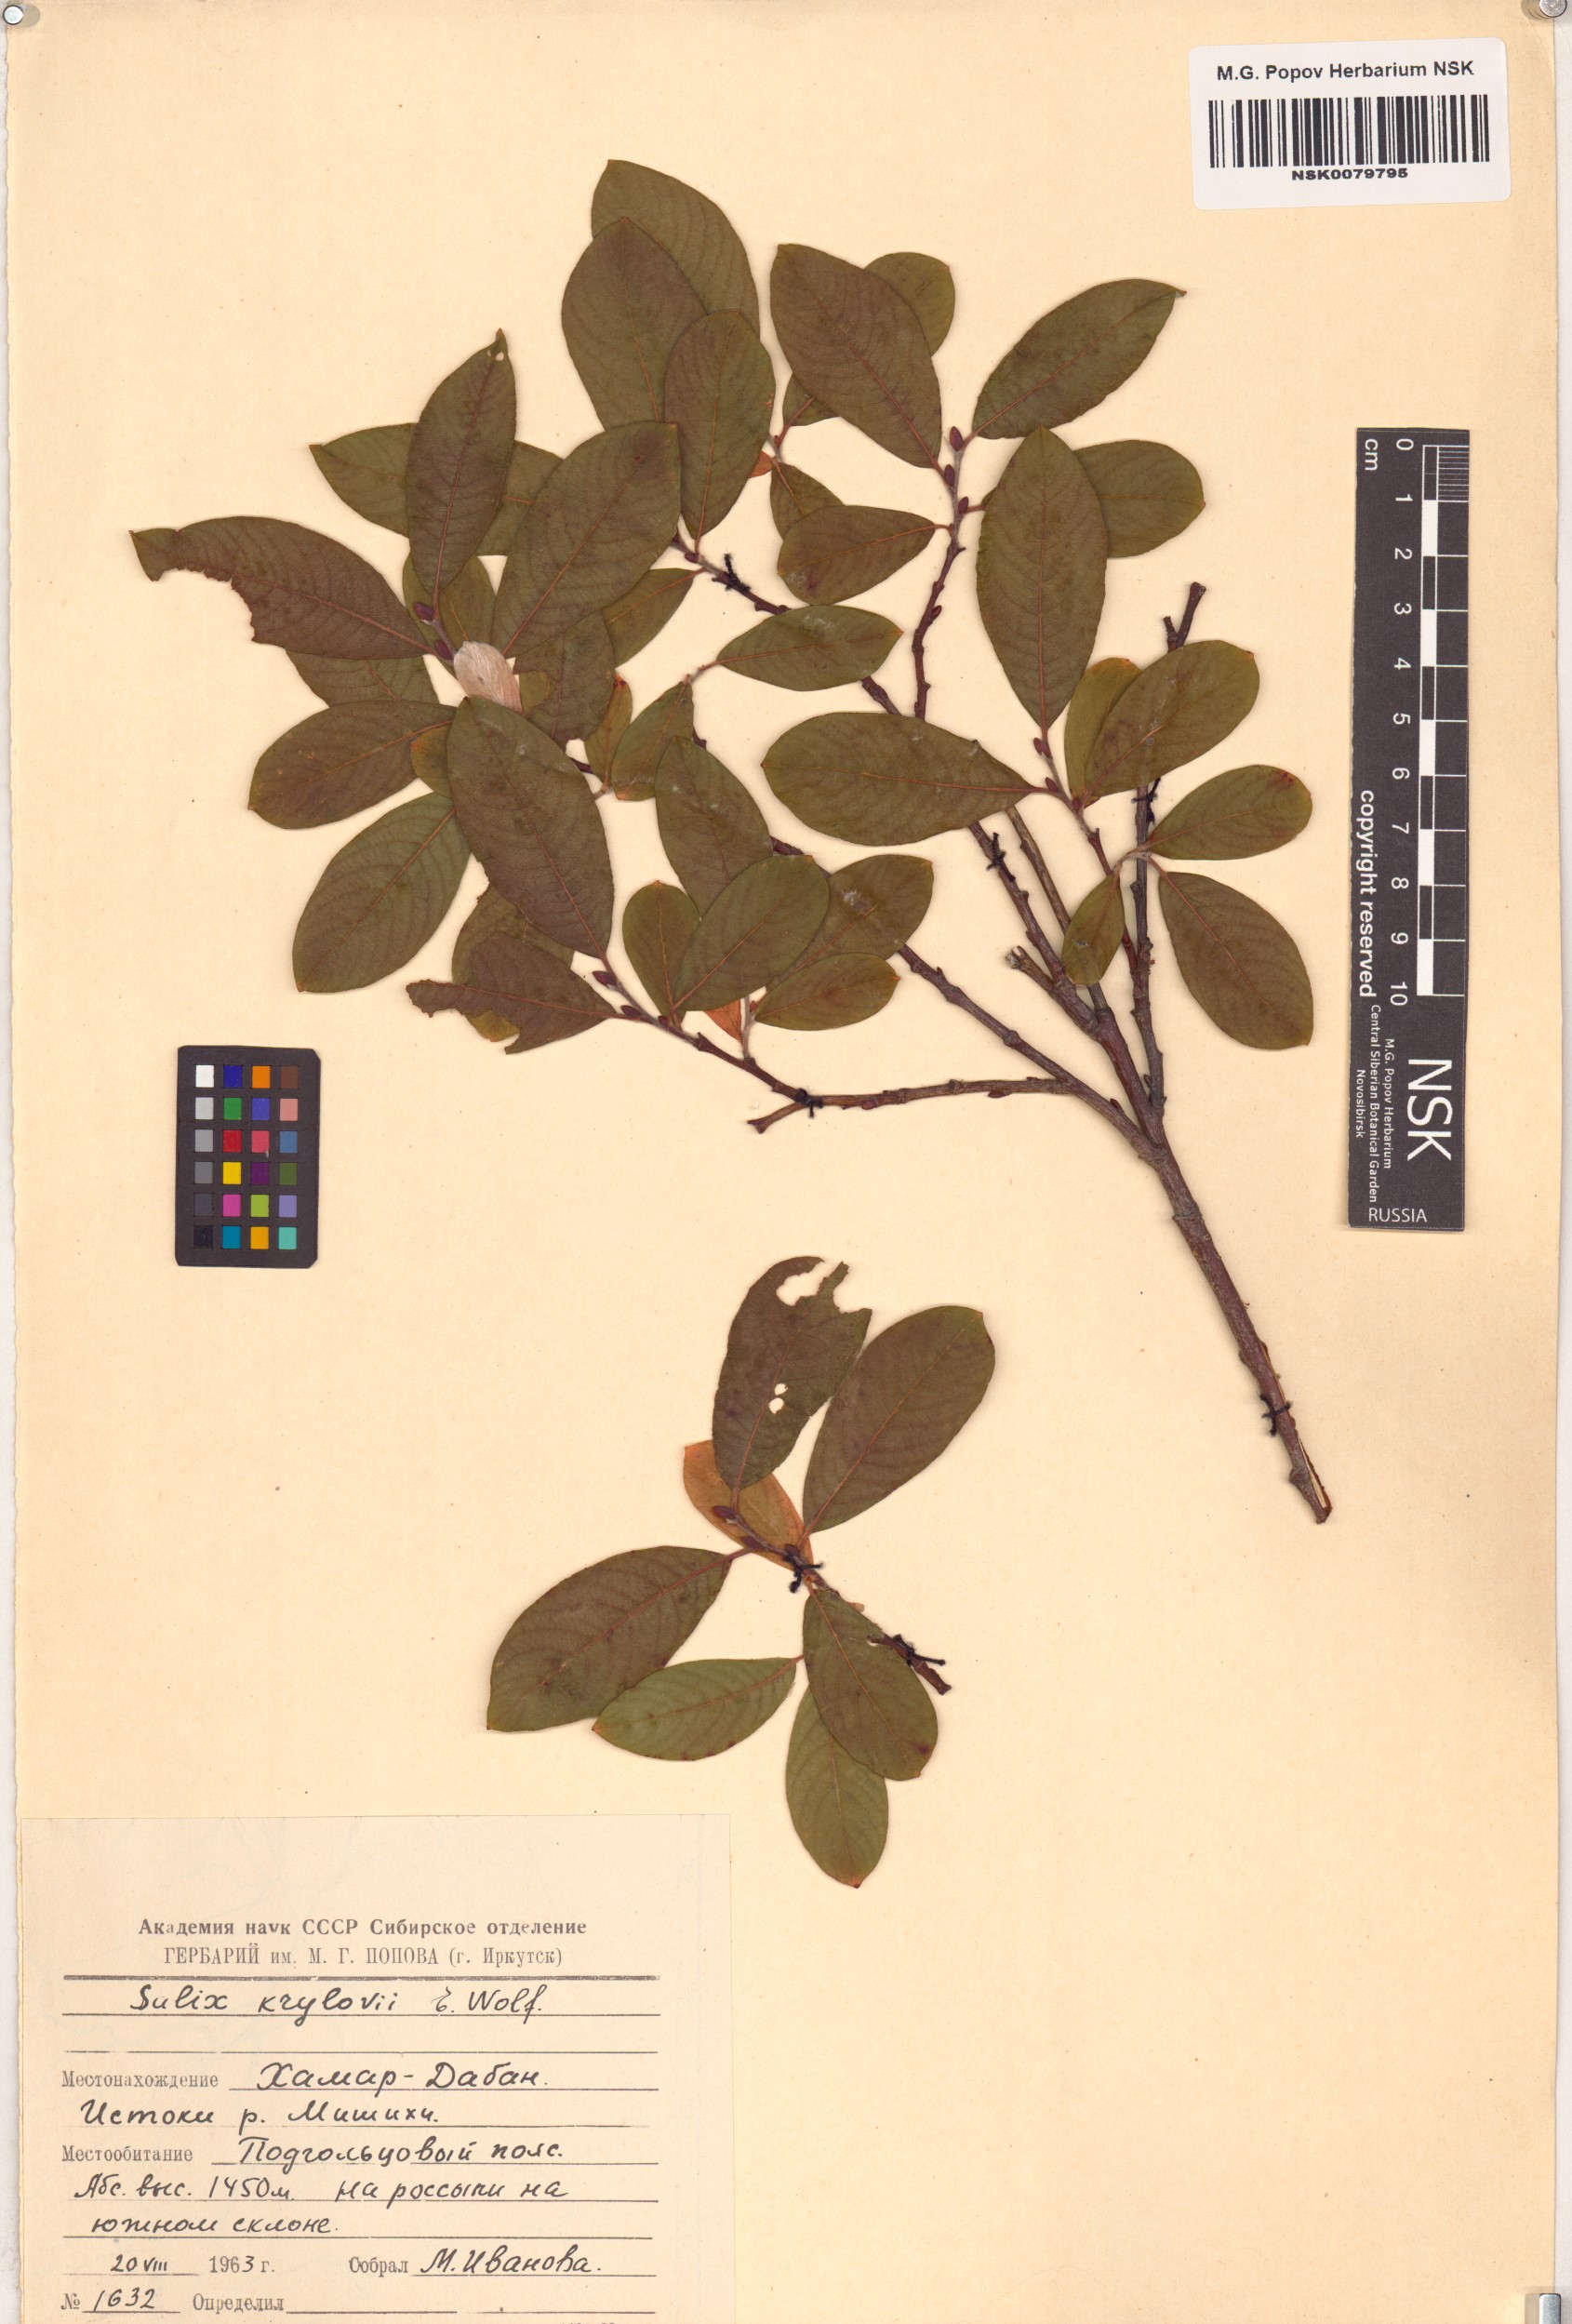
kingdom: Plantae
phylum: Tracheophyta
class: Magnoliopsida
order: Malpighiales
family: Salicaceae
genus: Salix
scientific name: Salix krylovii
